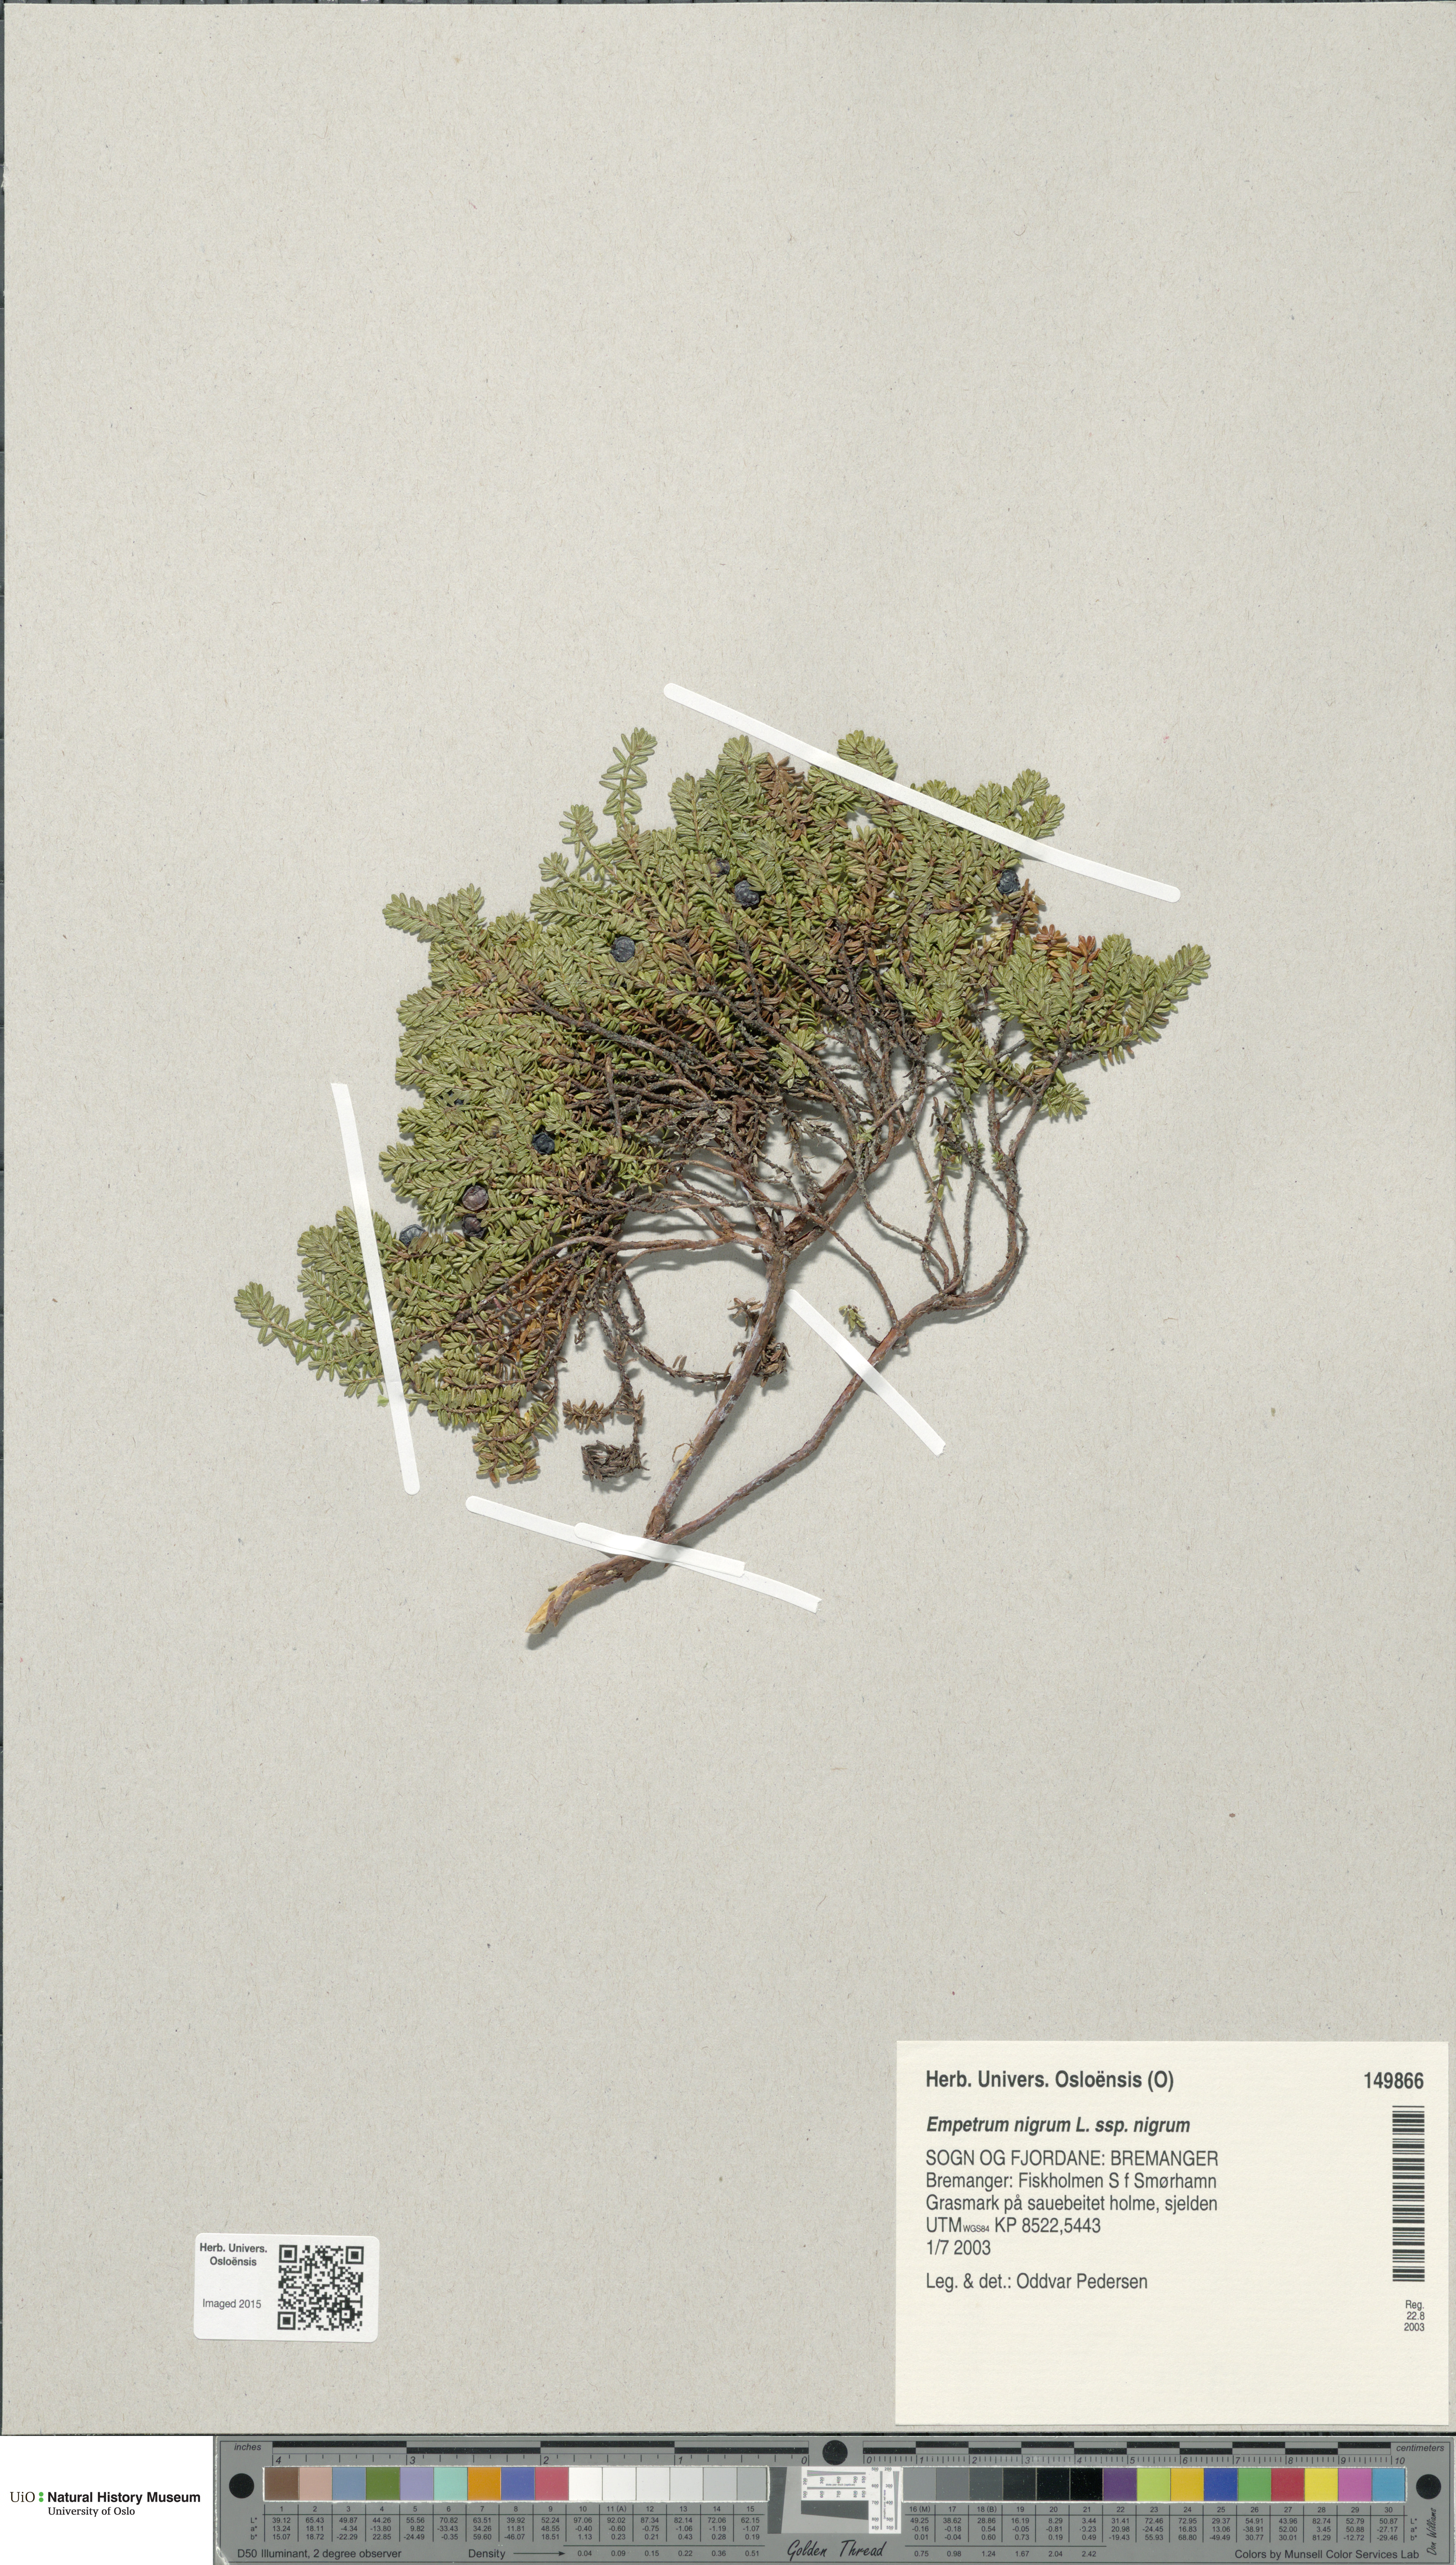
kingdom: Plantae
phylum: Tracheophyta
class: Magnoliopsida
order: Ericales
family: Ericaceae
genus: Empetrum
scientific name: Empetrum nigrum
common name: Black crowberry
